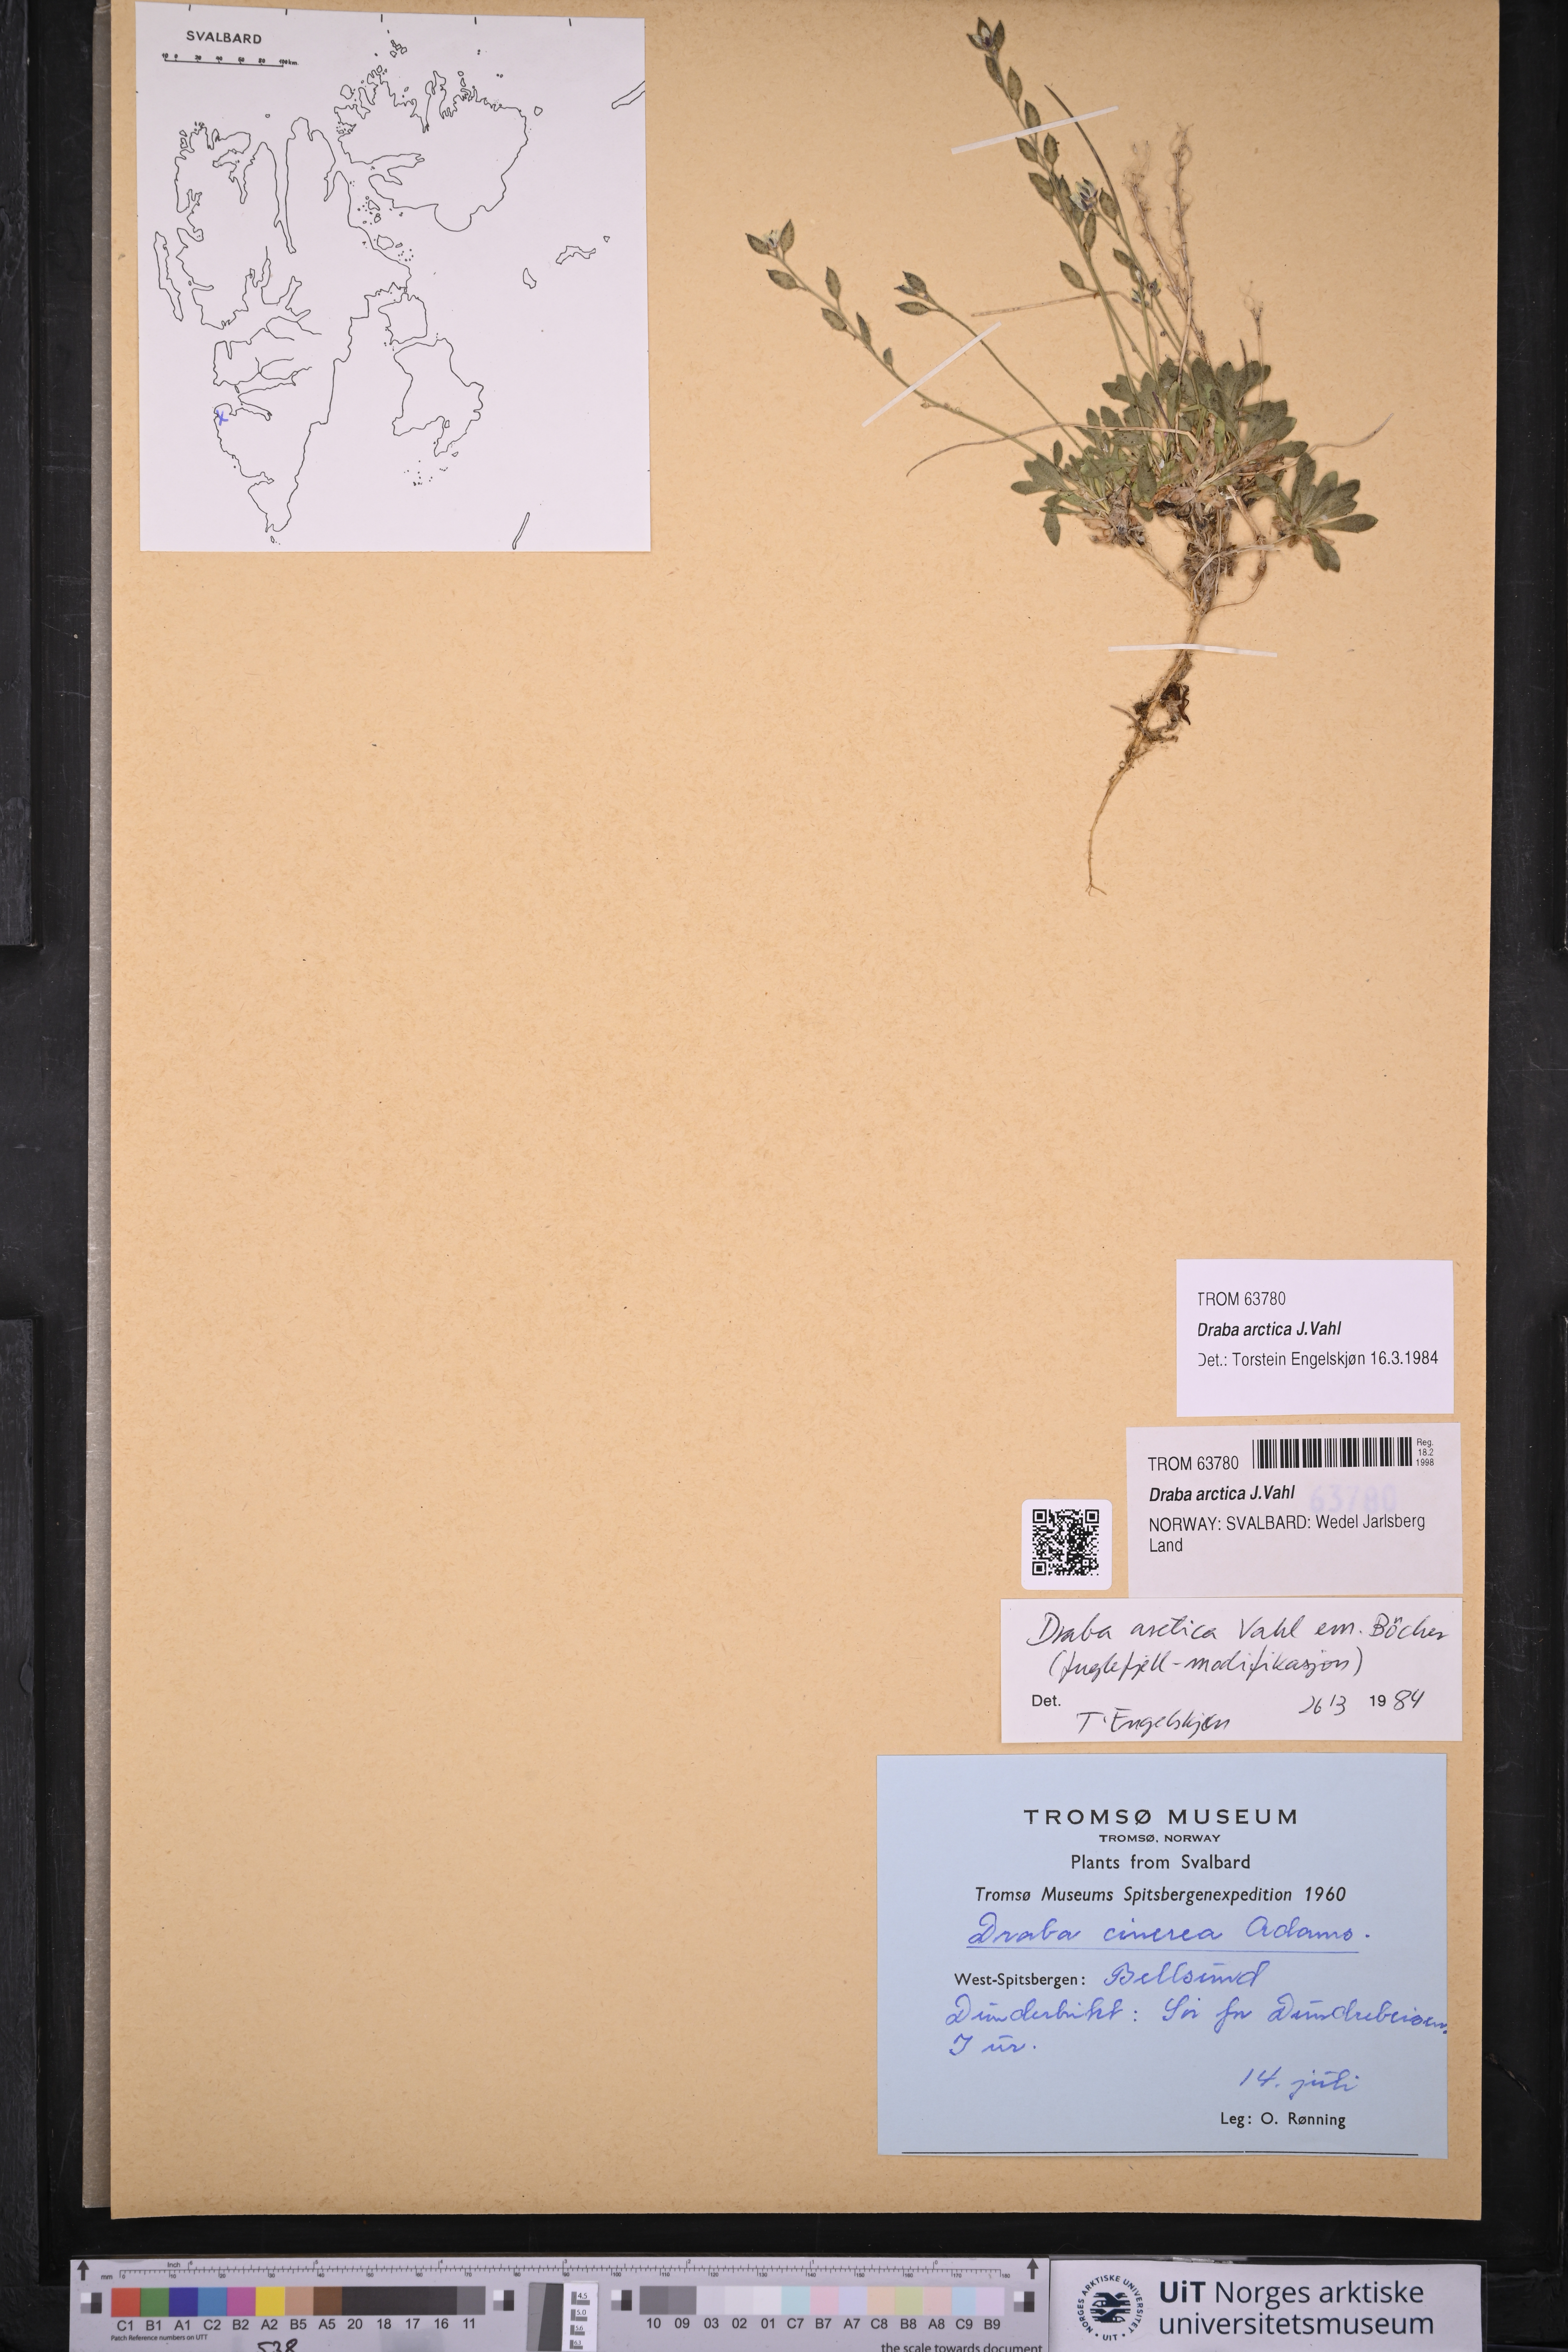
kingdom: Plantae
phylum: Tracheophyta
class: Magnoliopsida
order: Brassicales
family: Brassicaceae
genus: Draba
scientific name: Draba arctica
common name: Arctic draba
